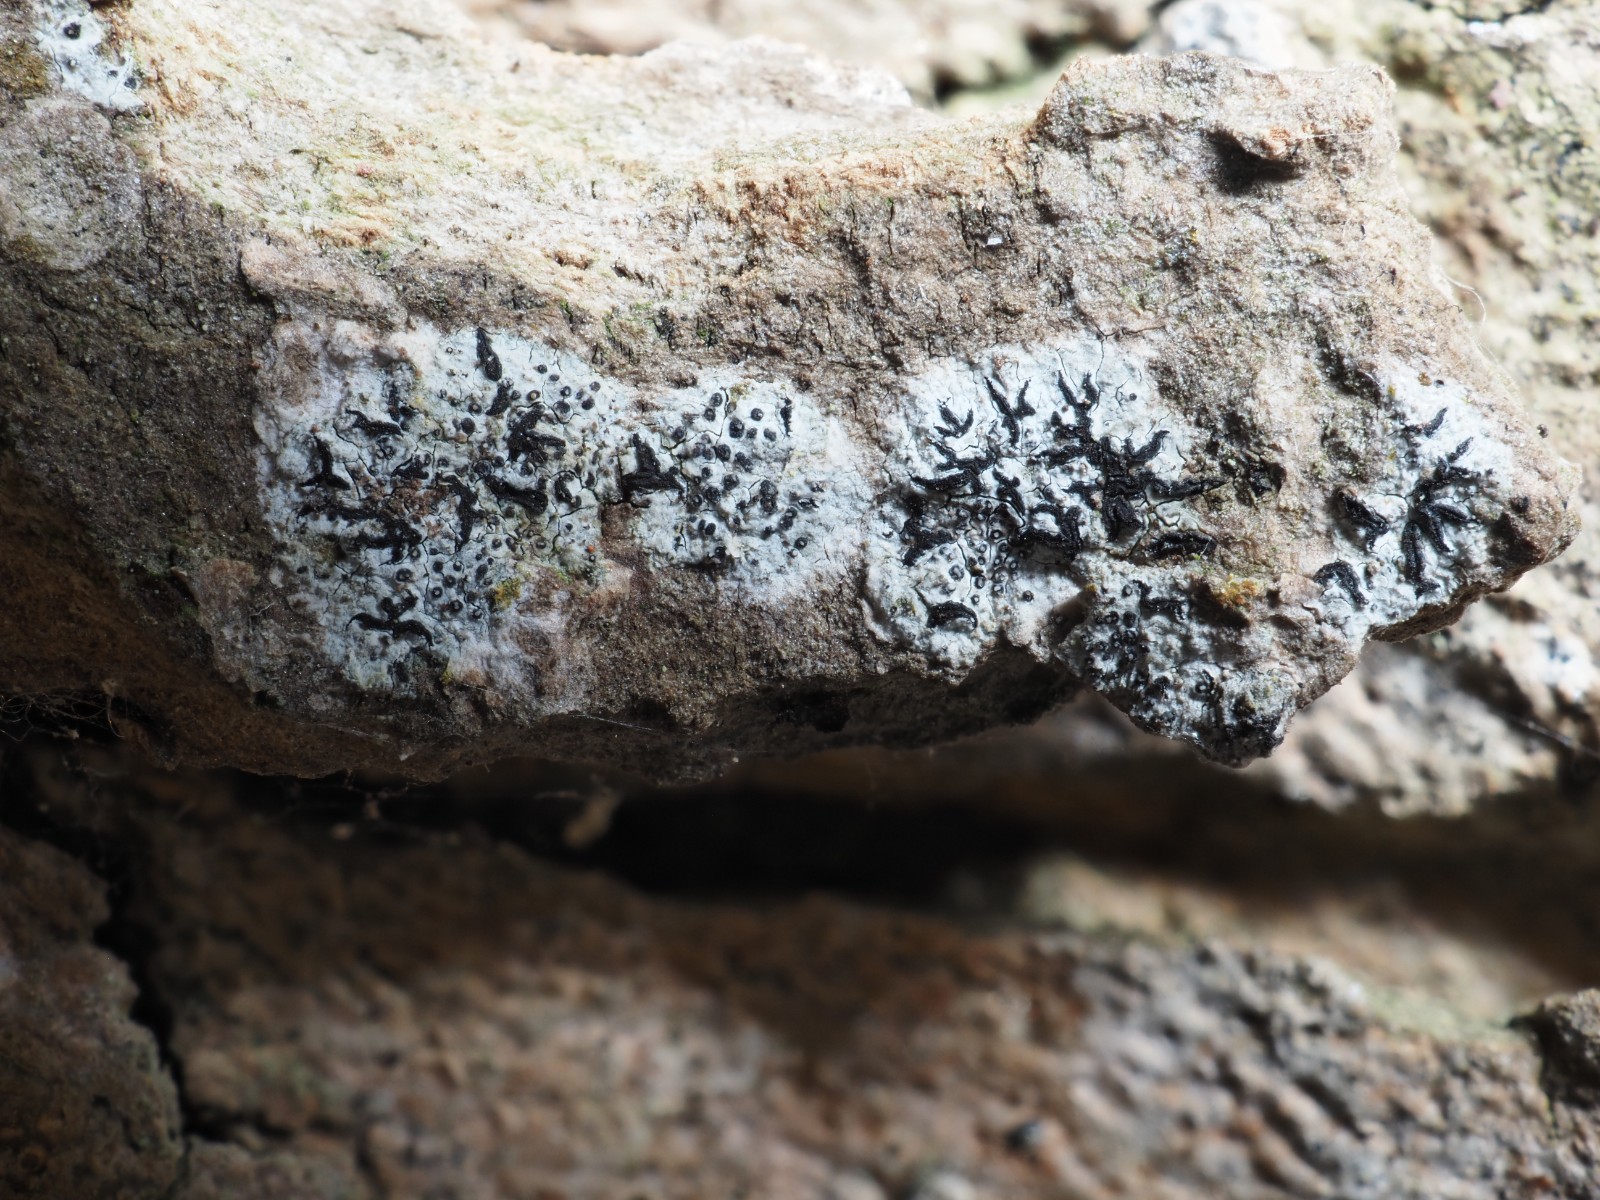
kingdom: Fungi
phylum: Ascomycota
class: Arthoniomycetes
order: Arthoniales
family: Opegraphaceae
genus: Opegrapha
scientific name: Opegrapha niveoatra
